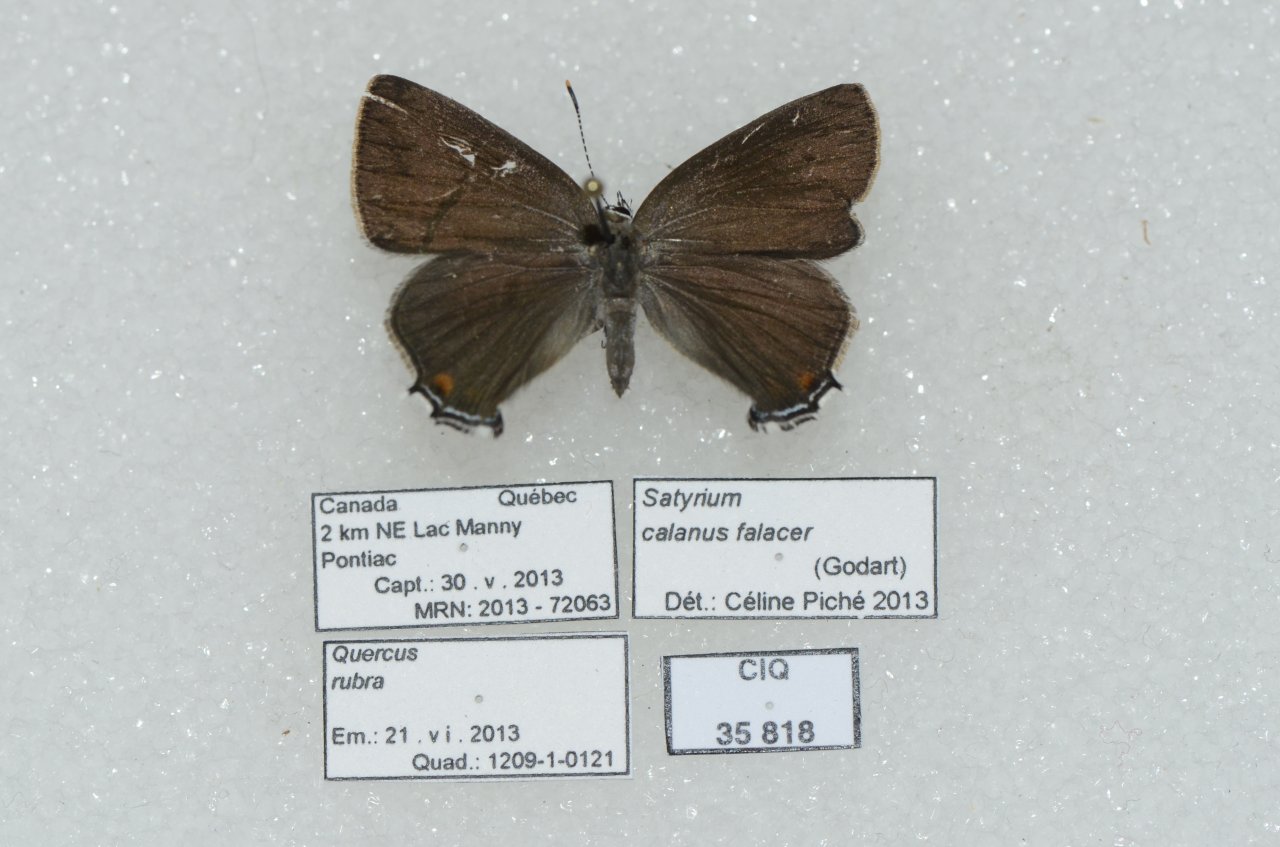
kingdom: Animalia
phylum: Arthropoda
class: Insecta
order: Lepidoptera
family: Lycaenidae
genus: Satyrium
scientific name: Satyrium calanus
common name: Banded Hairstreak
